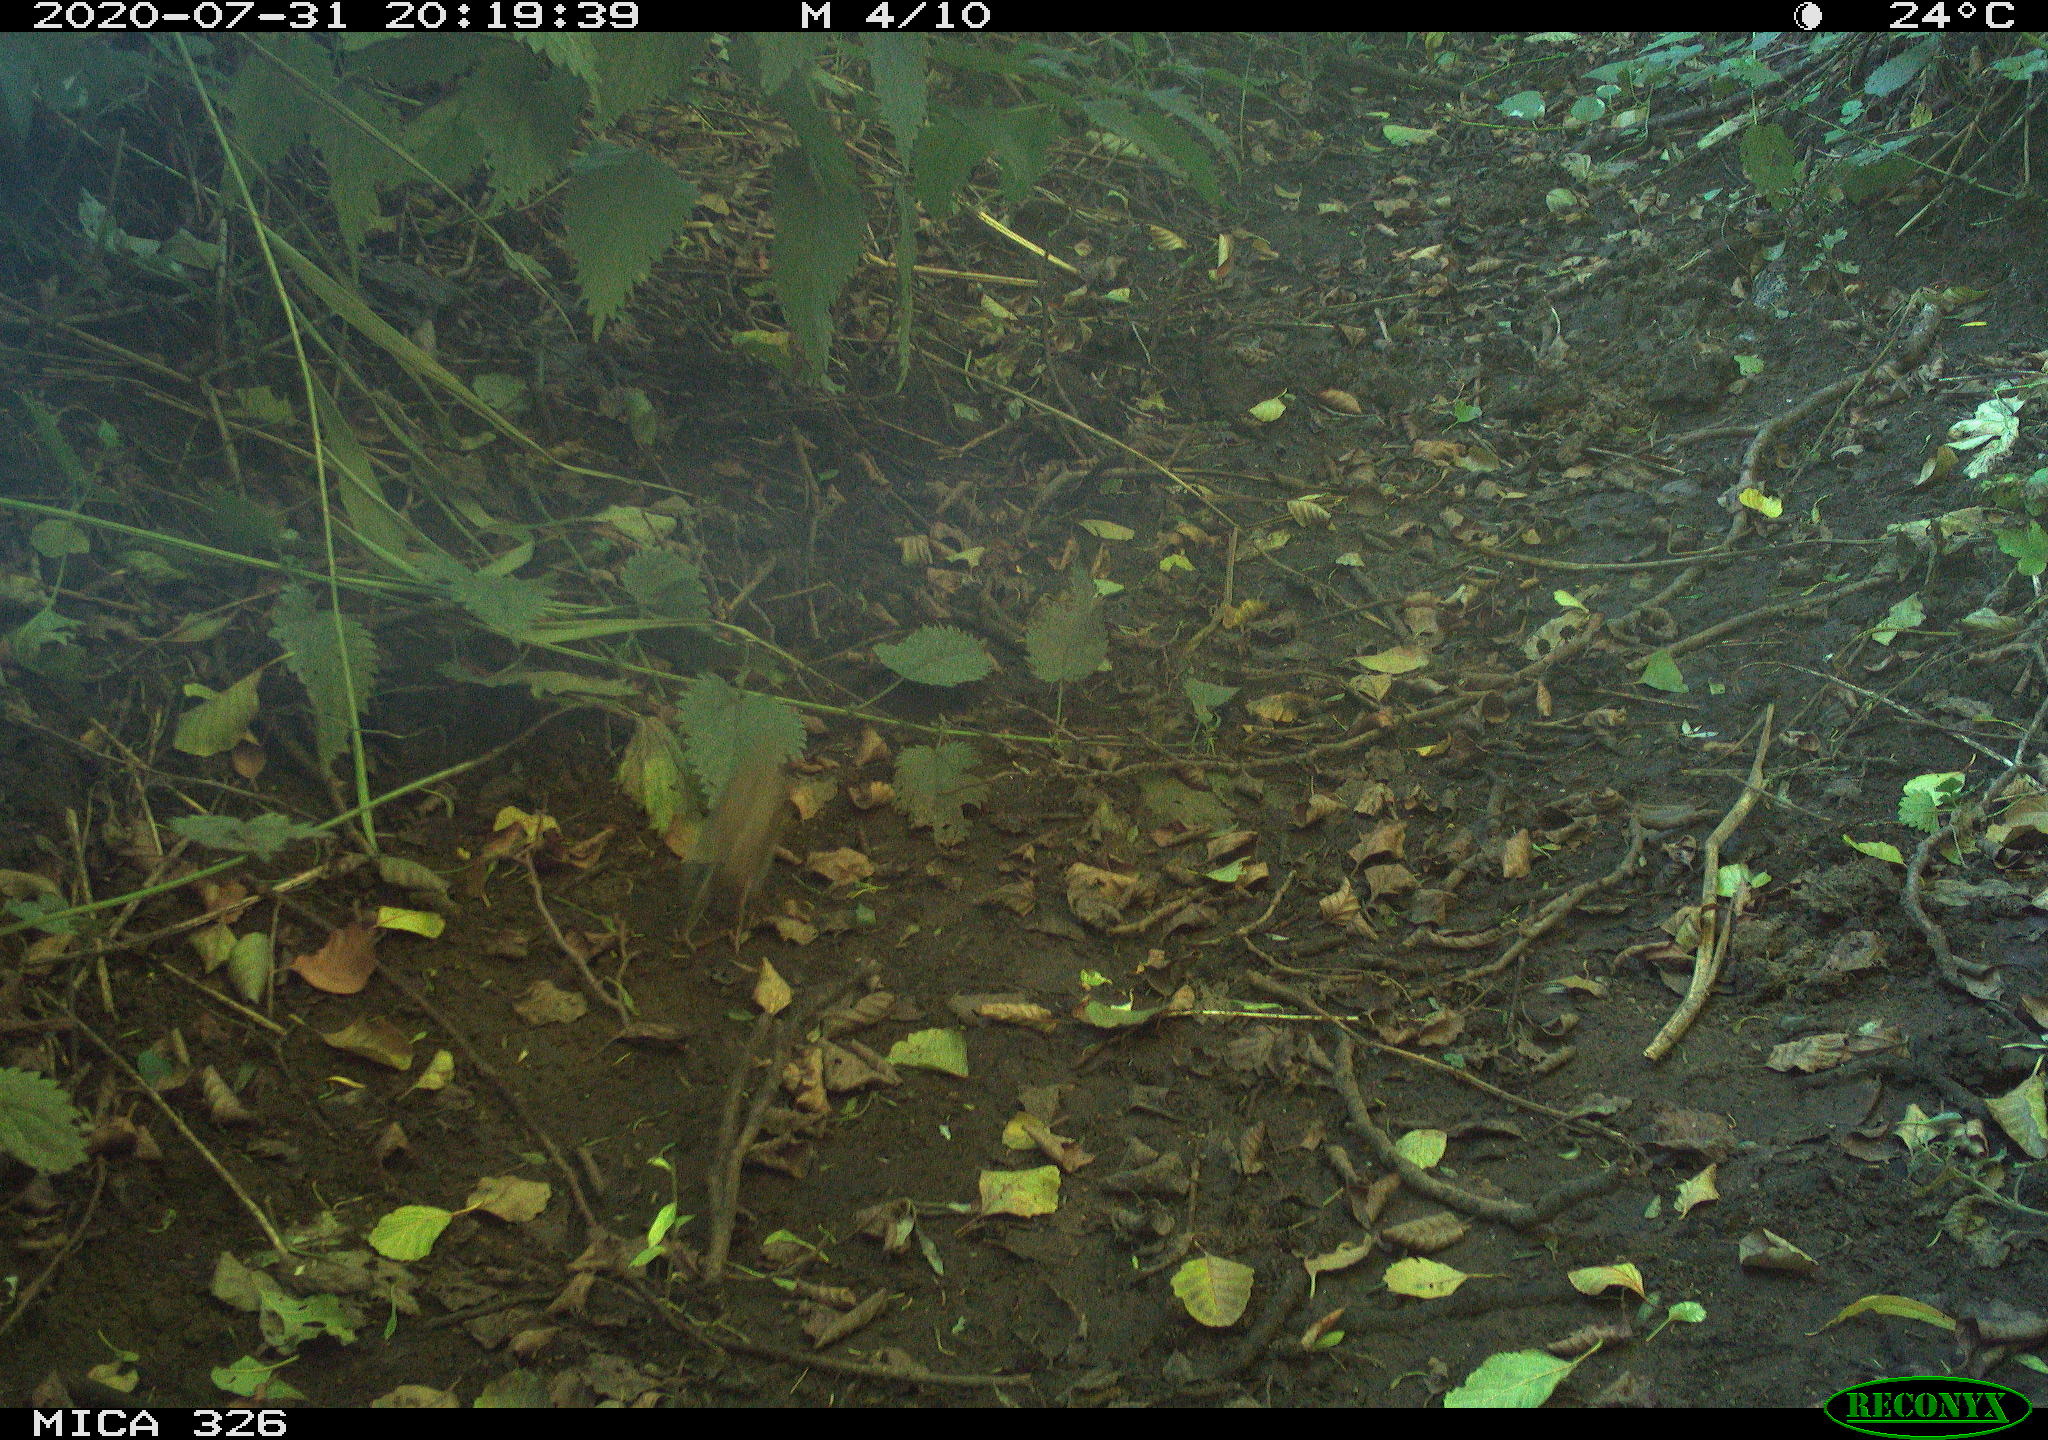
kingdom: Animalia
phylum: Chordata
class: Aves
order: Passeriformes
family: Muscicapidae
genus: Erithacus
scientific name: Erithacus rubecula
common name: European robin
